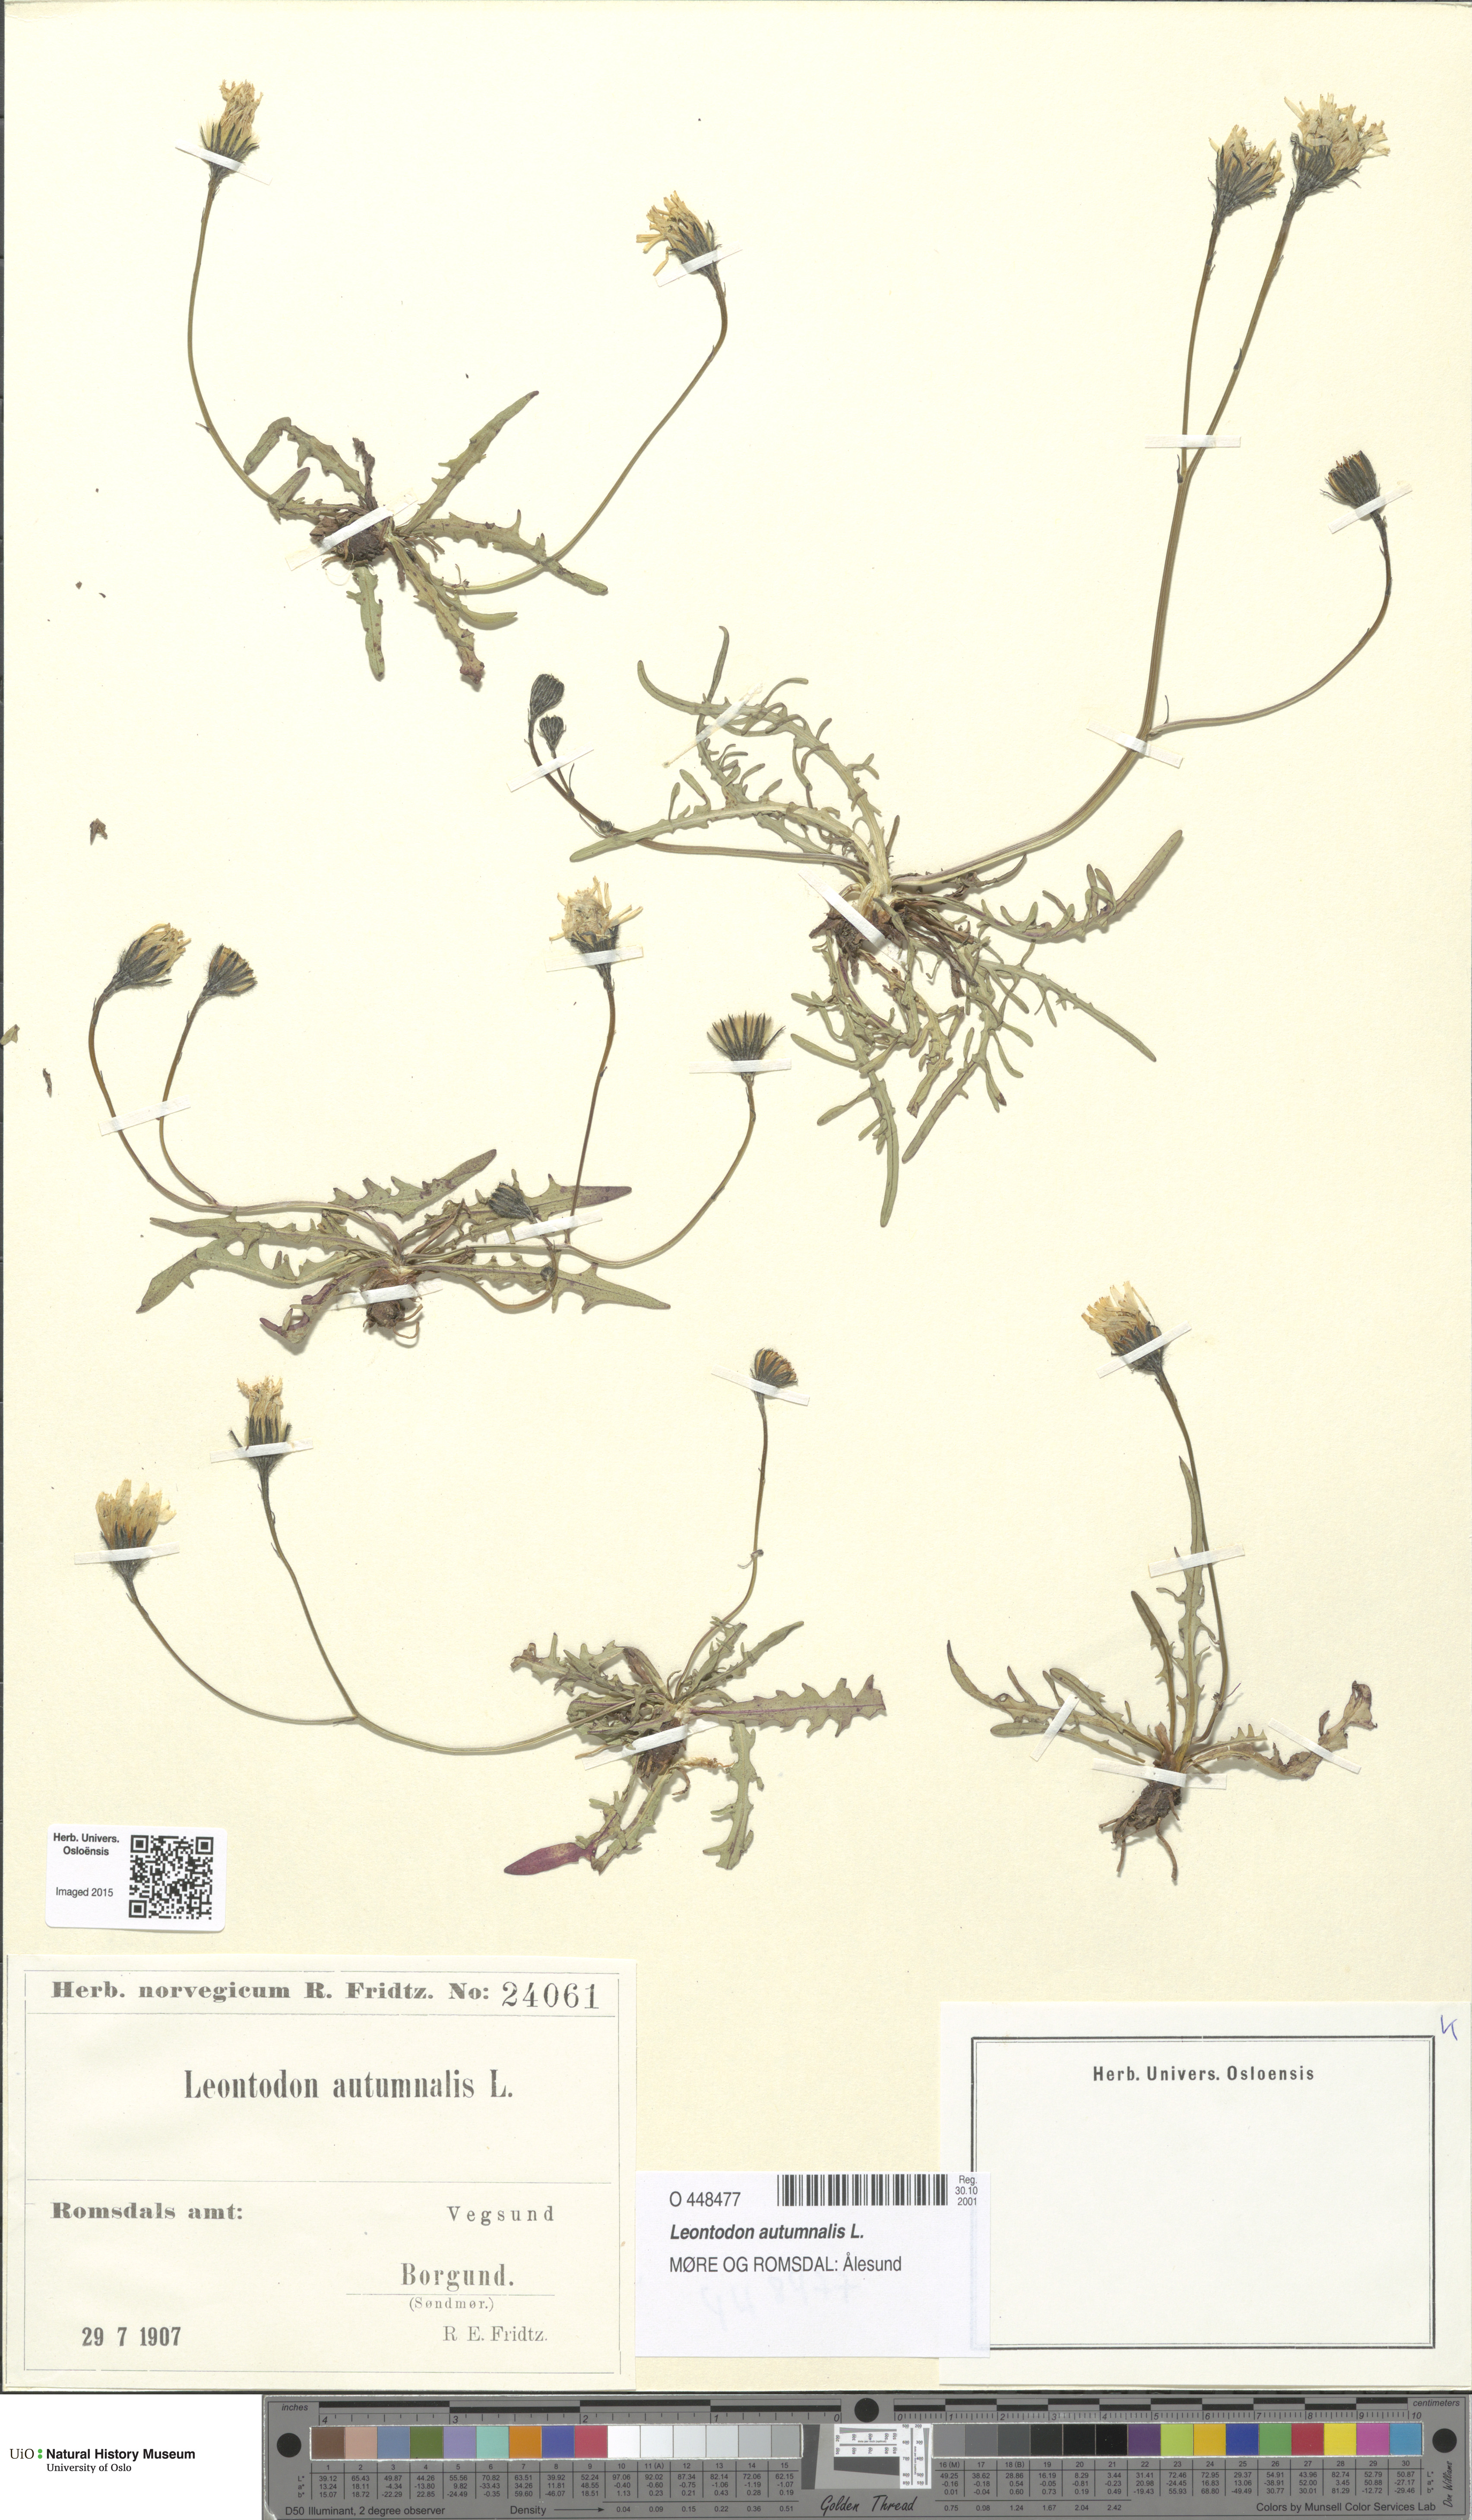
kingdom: Plantae
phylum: Tracheophyta
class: Magnoliopsida
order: Asterales
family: Asteraceae
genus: Scorzoneroides
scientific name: Scorzoneroides autumnalis
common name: Autumn hawkbit
